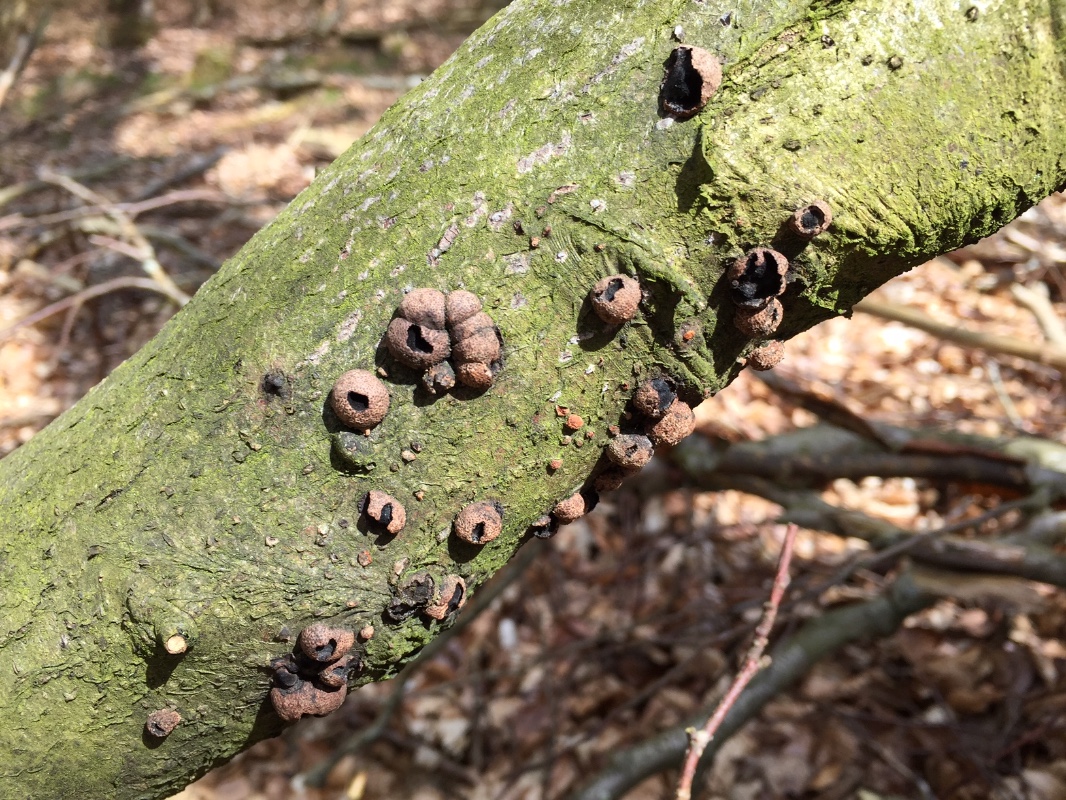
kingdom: Fungi
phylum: Ascomycota
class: Sordariomycetes
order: Xylariales
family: Hypoxylaceae
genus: Hypoxylon
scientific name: Hypoxylon fragiforme
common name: kuljordbær
